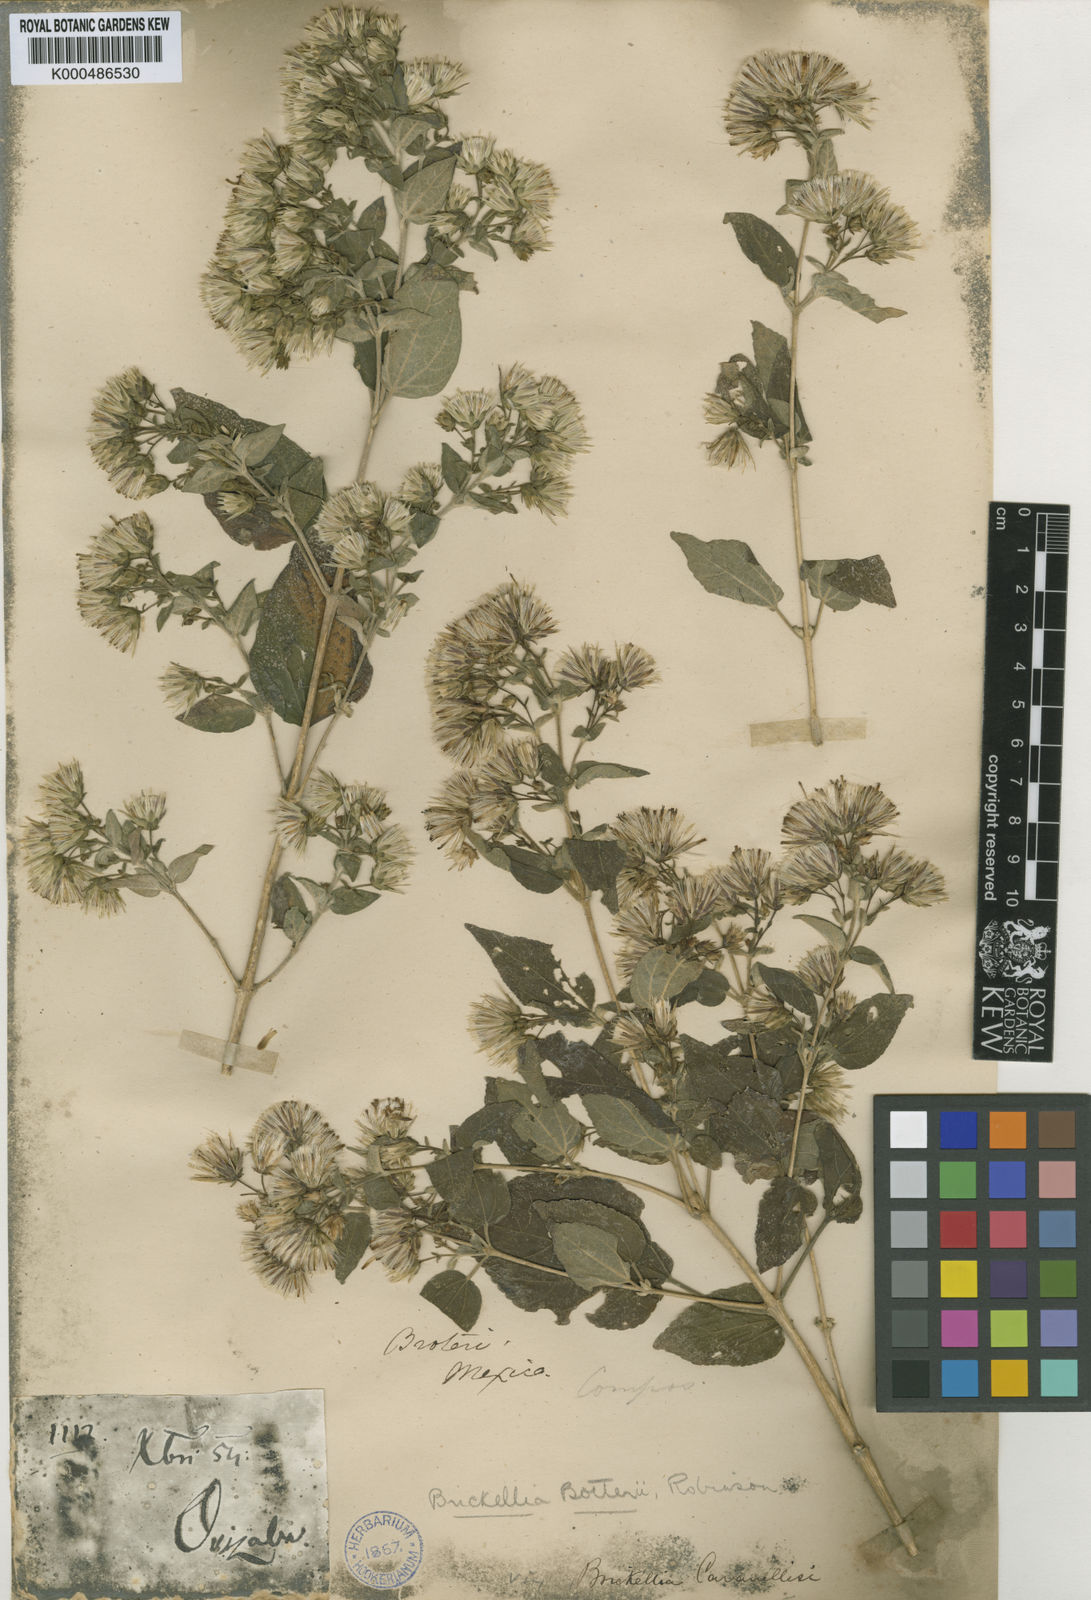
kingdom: Plantae
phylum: Tracheophyta
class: Magnoliopsida
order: Asterales
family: Asteraceae
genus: Brickellia
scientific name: Brickellia cavanillesii
